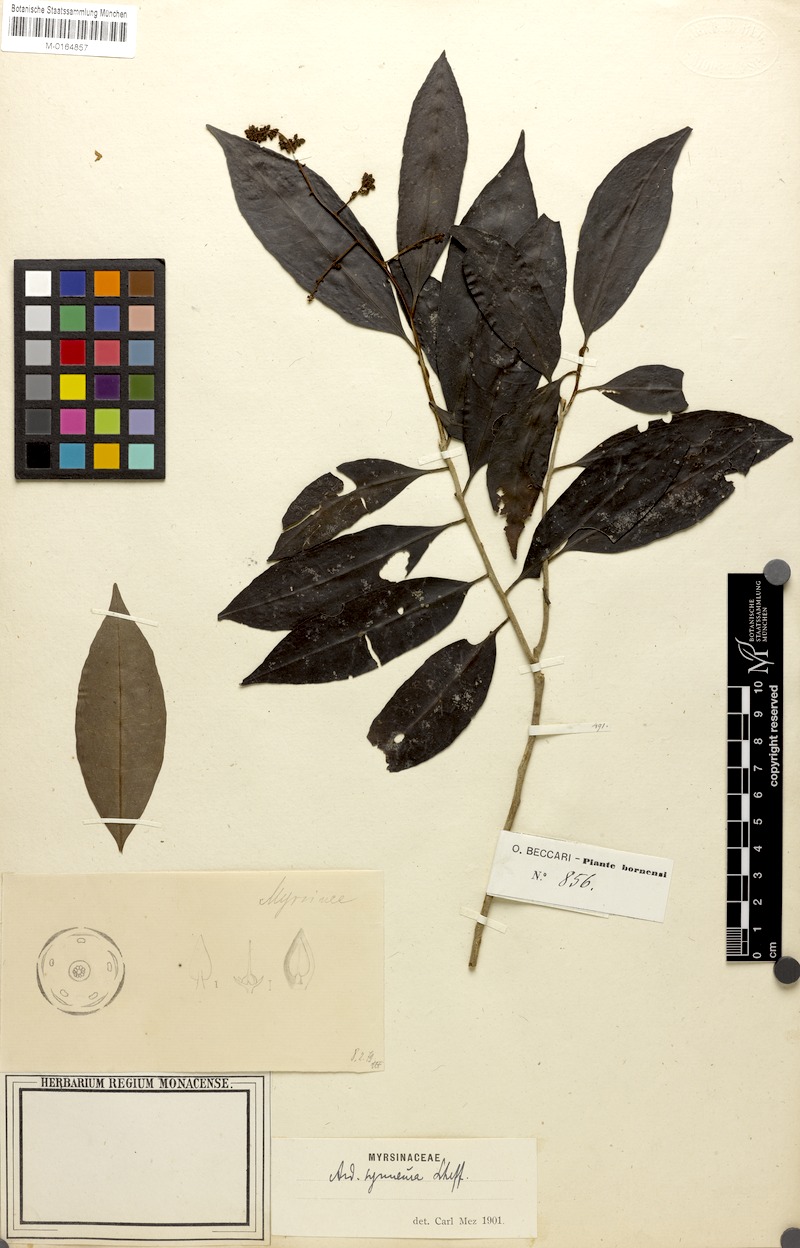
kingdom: Plantae
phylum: Tracheophyta
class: Magnoliopsida
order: Ericales
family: Primulaceae
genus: Ardisia
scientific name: Ardisia pterocaulis
